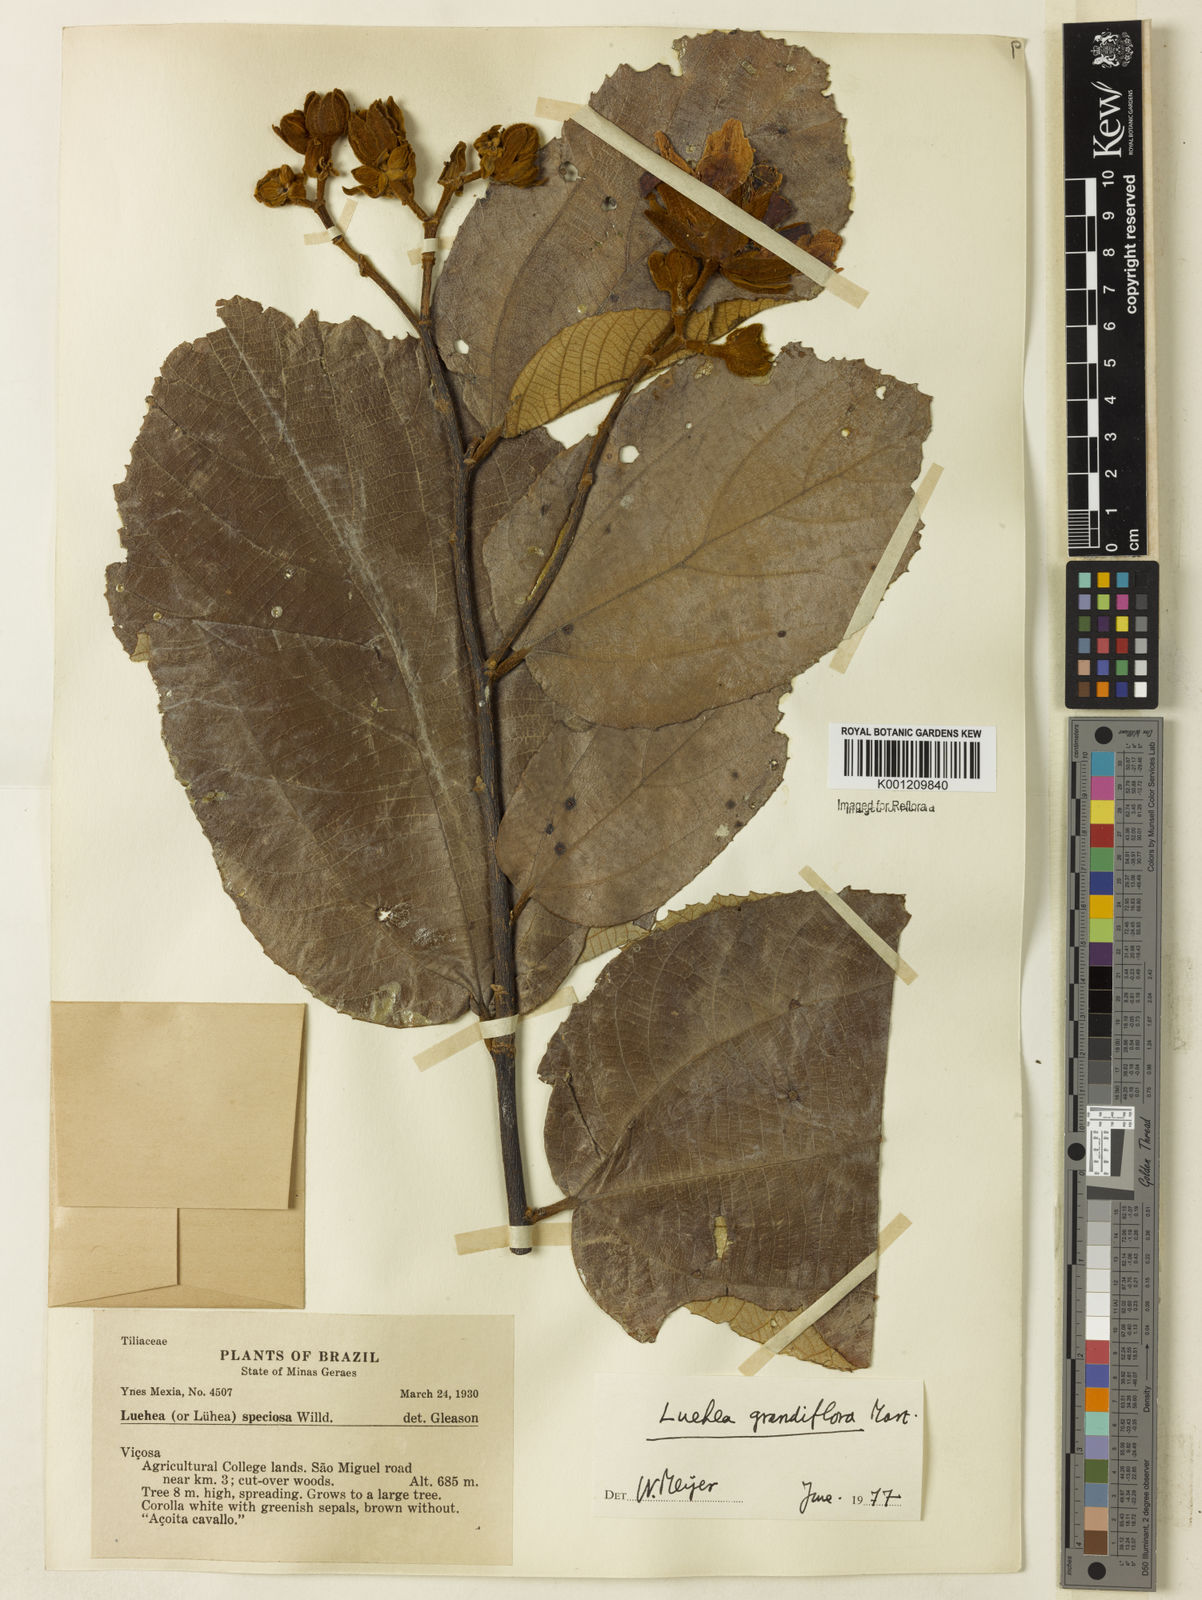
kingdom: Plantae
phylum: Tracheophyta
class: Magnoliopsida
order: Malvales
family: Malvaceae
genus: Luehea
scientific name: Luehea grandiflora
